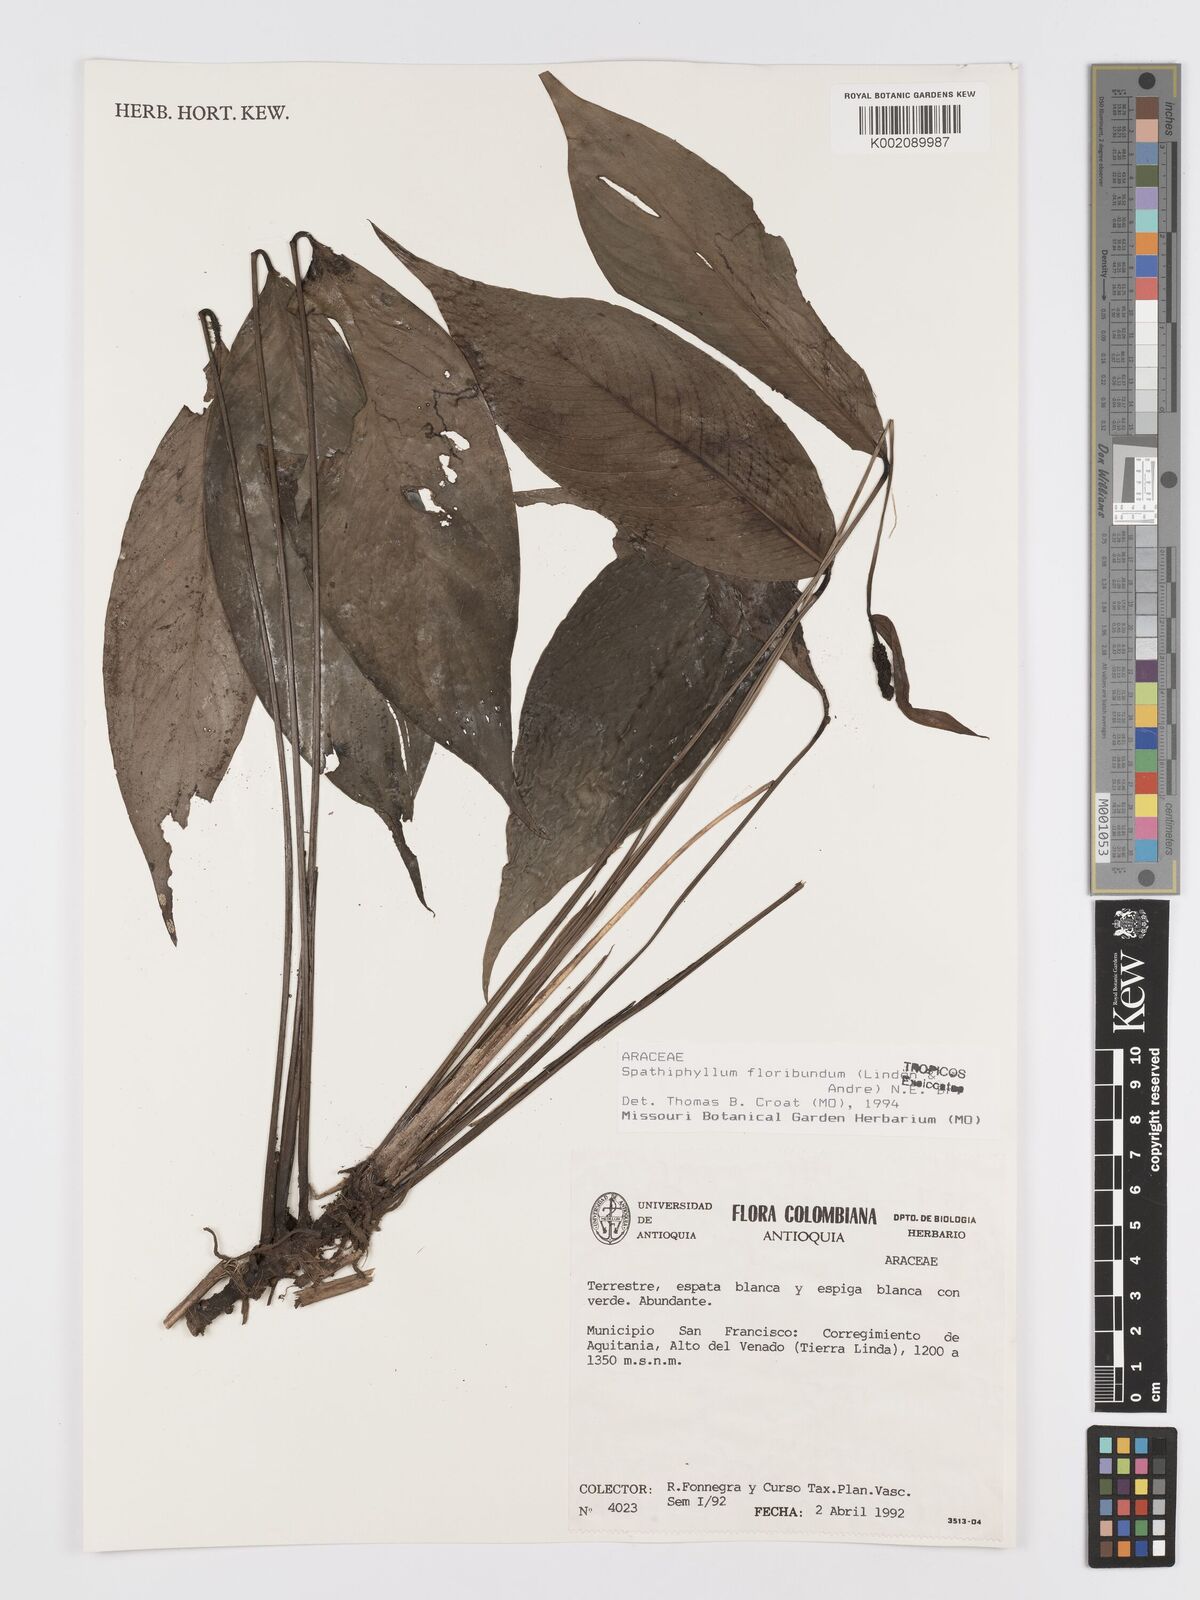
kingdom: Plantae
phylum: Tracheophyta
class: Liliopsida
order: Alismatales
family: Araceae
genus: Spathiphyllum
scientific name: Spathiphyllum floribundum
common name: Peace-lily
